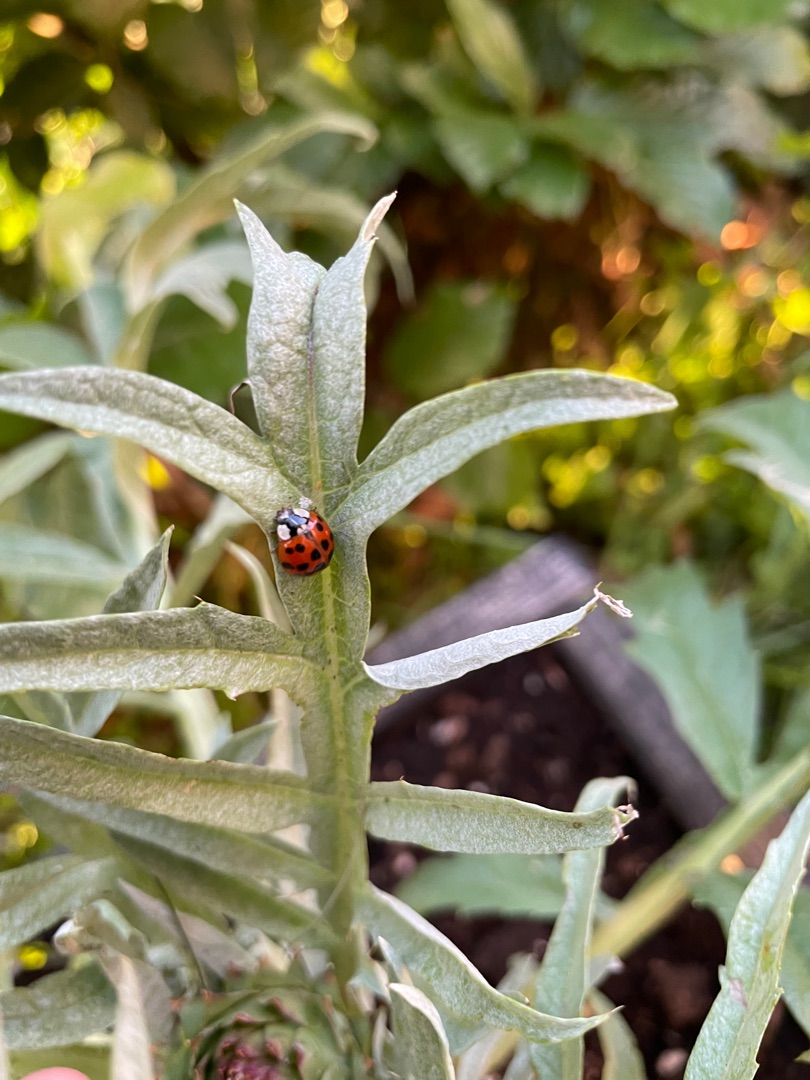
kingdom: Animalia
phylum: Arthropoda
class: Insecta
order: Coleoptera
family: Coccinellidae
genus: Harmonia
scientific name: Harmonia axyridis
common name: Harlekinmariehøne
